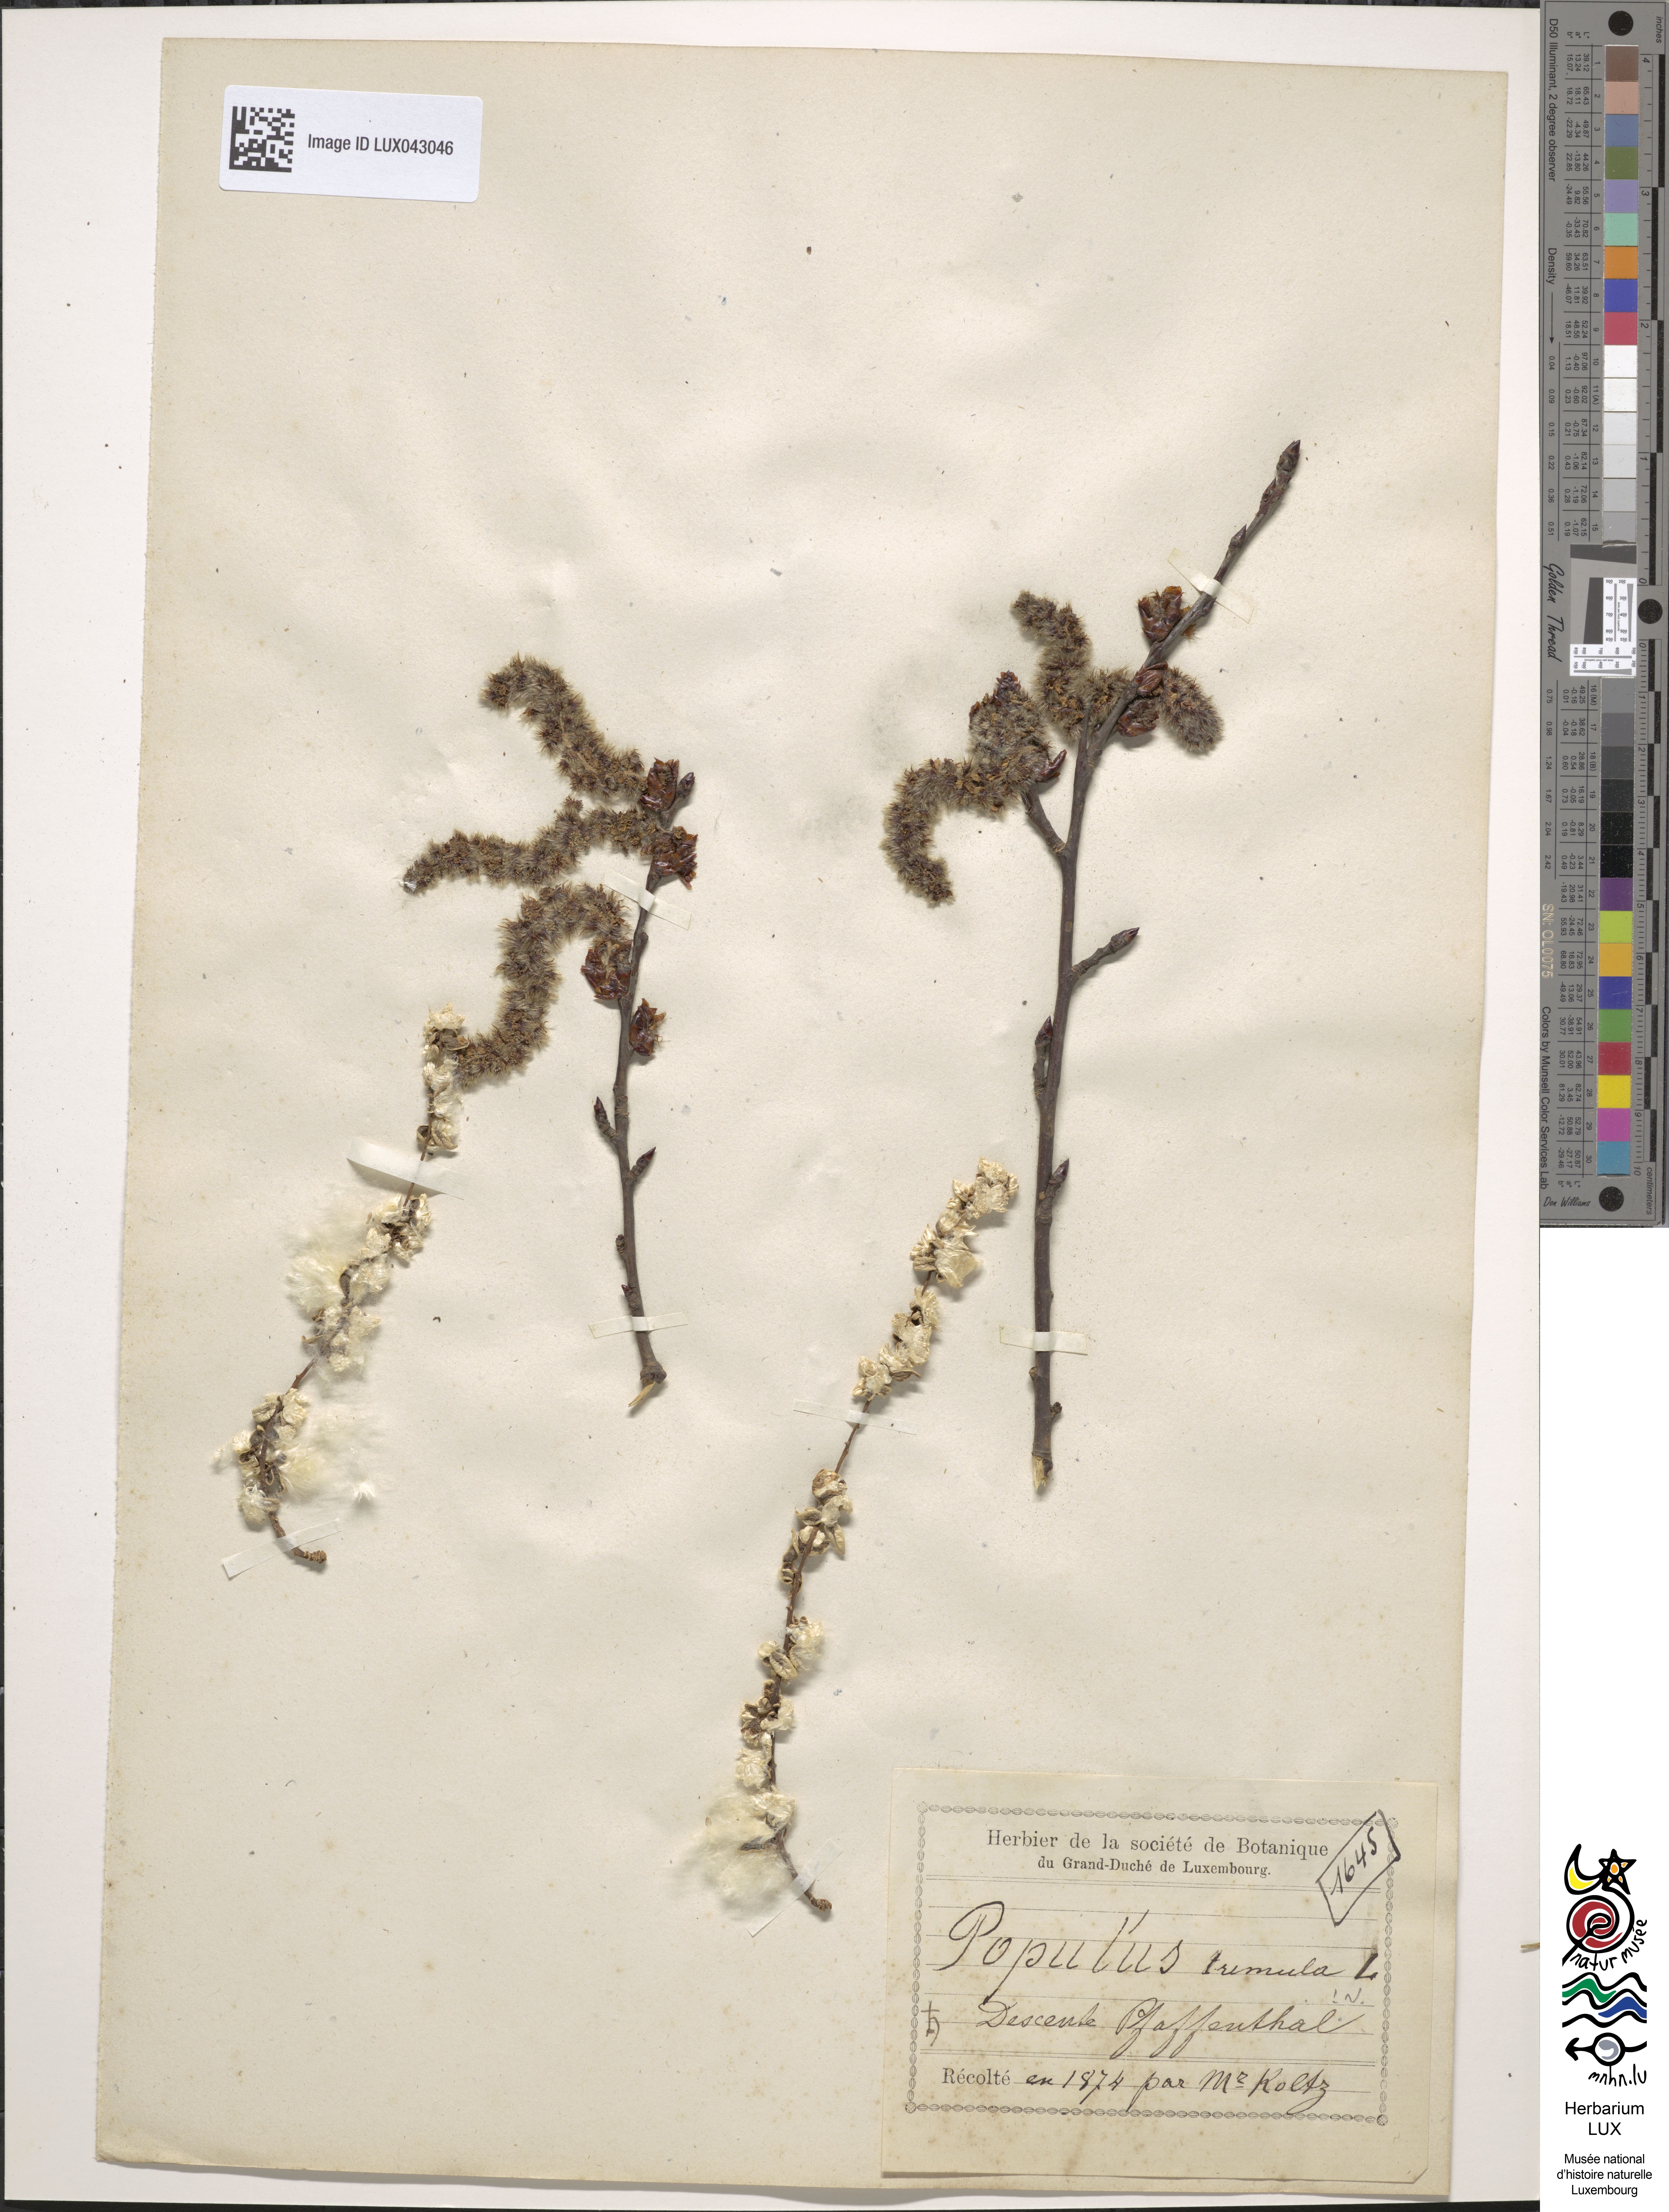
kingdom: Plantae
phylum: Tracheophyta
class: Magnoliopsida
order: Malpighiales
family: Salicaceae
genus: Populus
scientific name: Populus tremula
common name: European aspen
